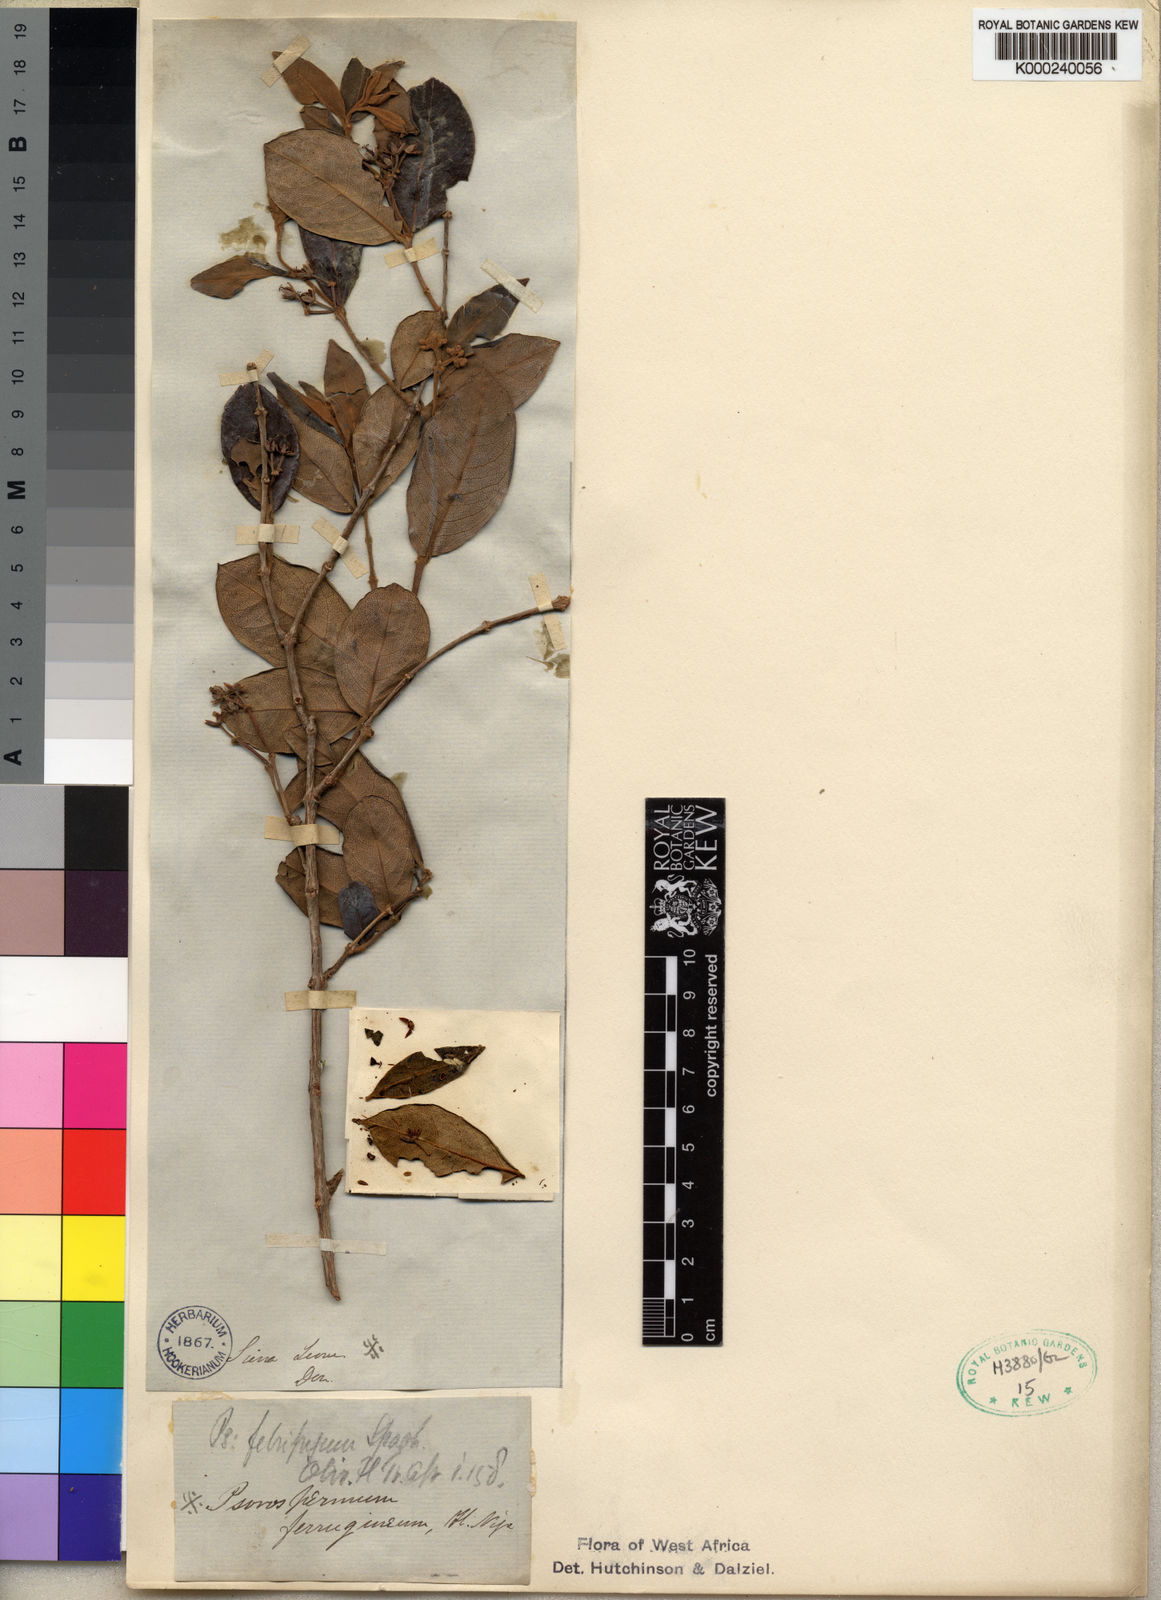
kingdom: Plantae
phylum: Tracheophyta
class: Magnoliopsida
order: Malpighiales
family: Hypericaceae
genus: Psorospermum
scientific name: Psorospermum febrifugum
